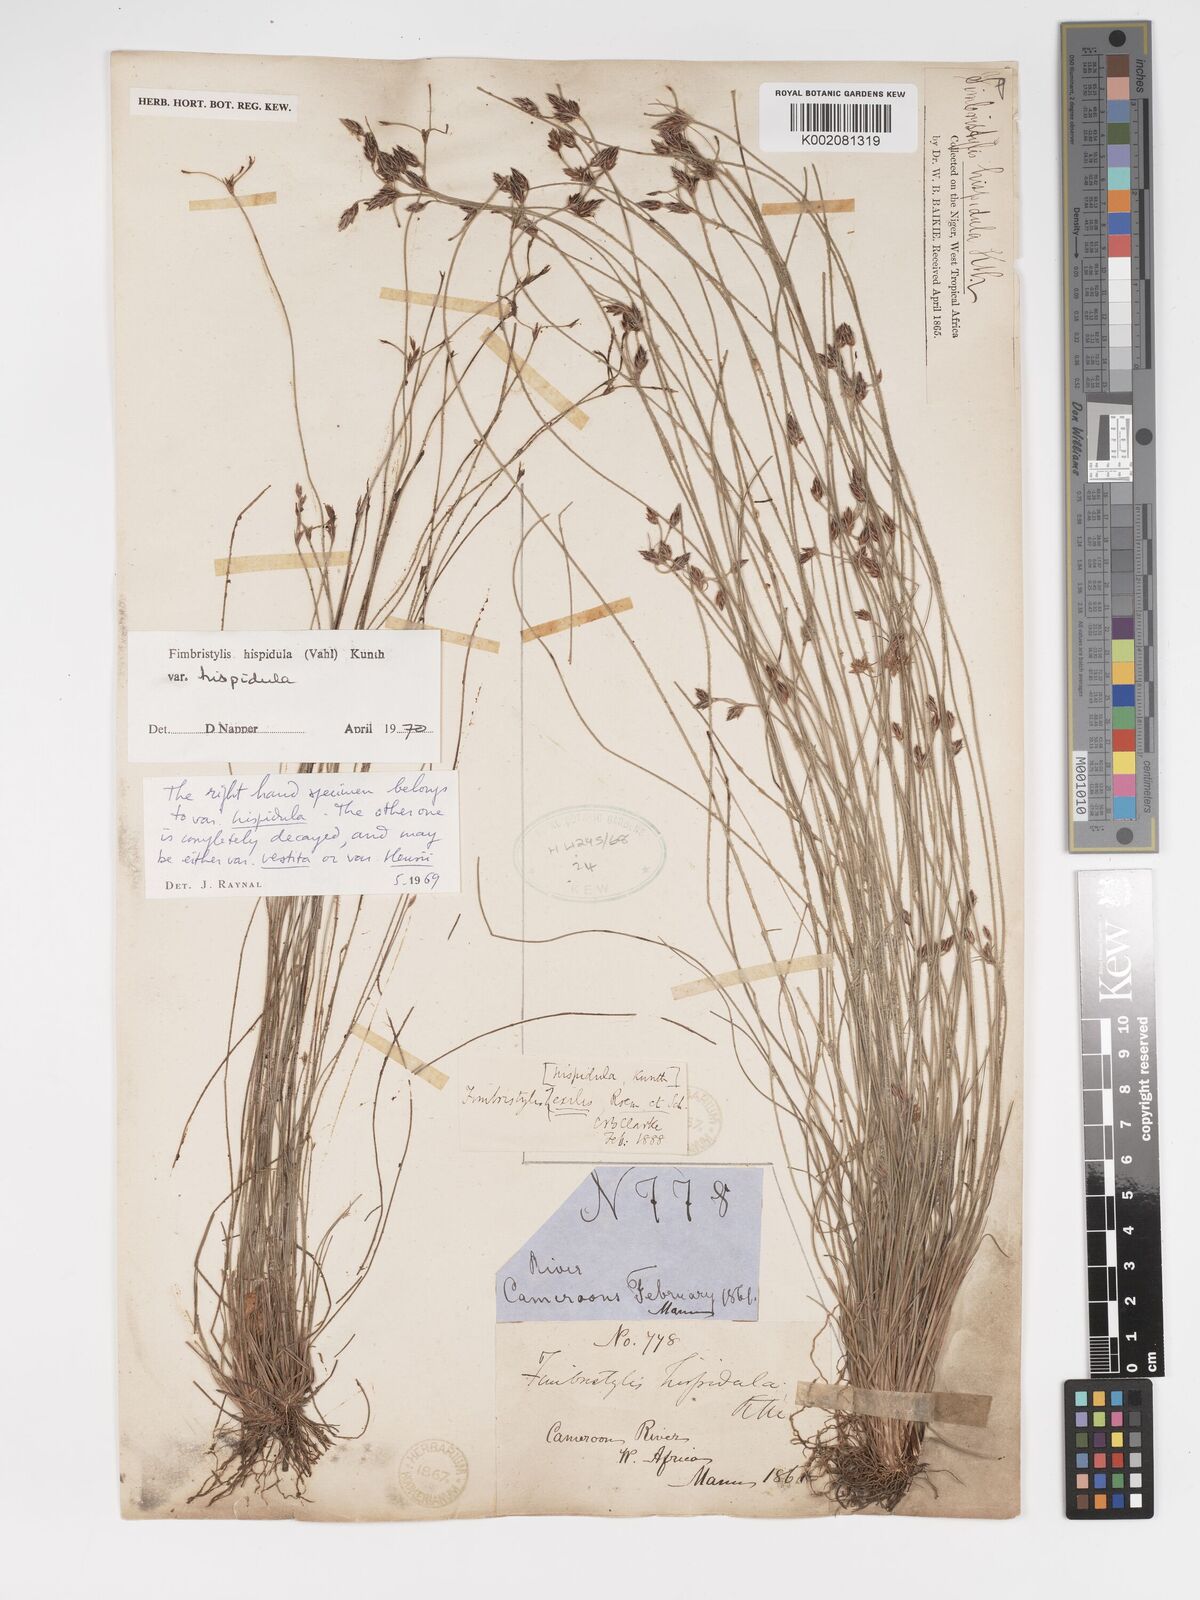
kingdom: Plantae
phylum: Tracheophyta
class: Liliopsida
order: Poales
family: Cyperaceae
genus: Bulbostylis
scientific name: Bulbostylis hispidula
